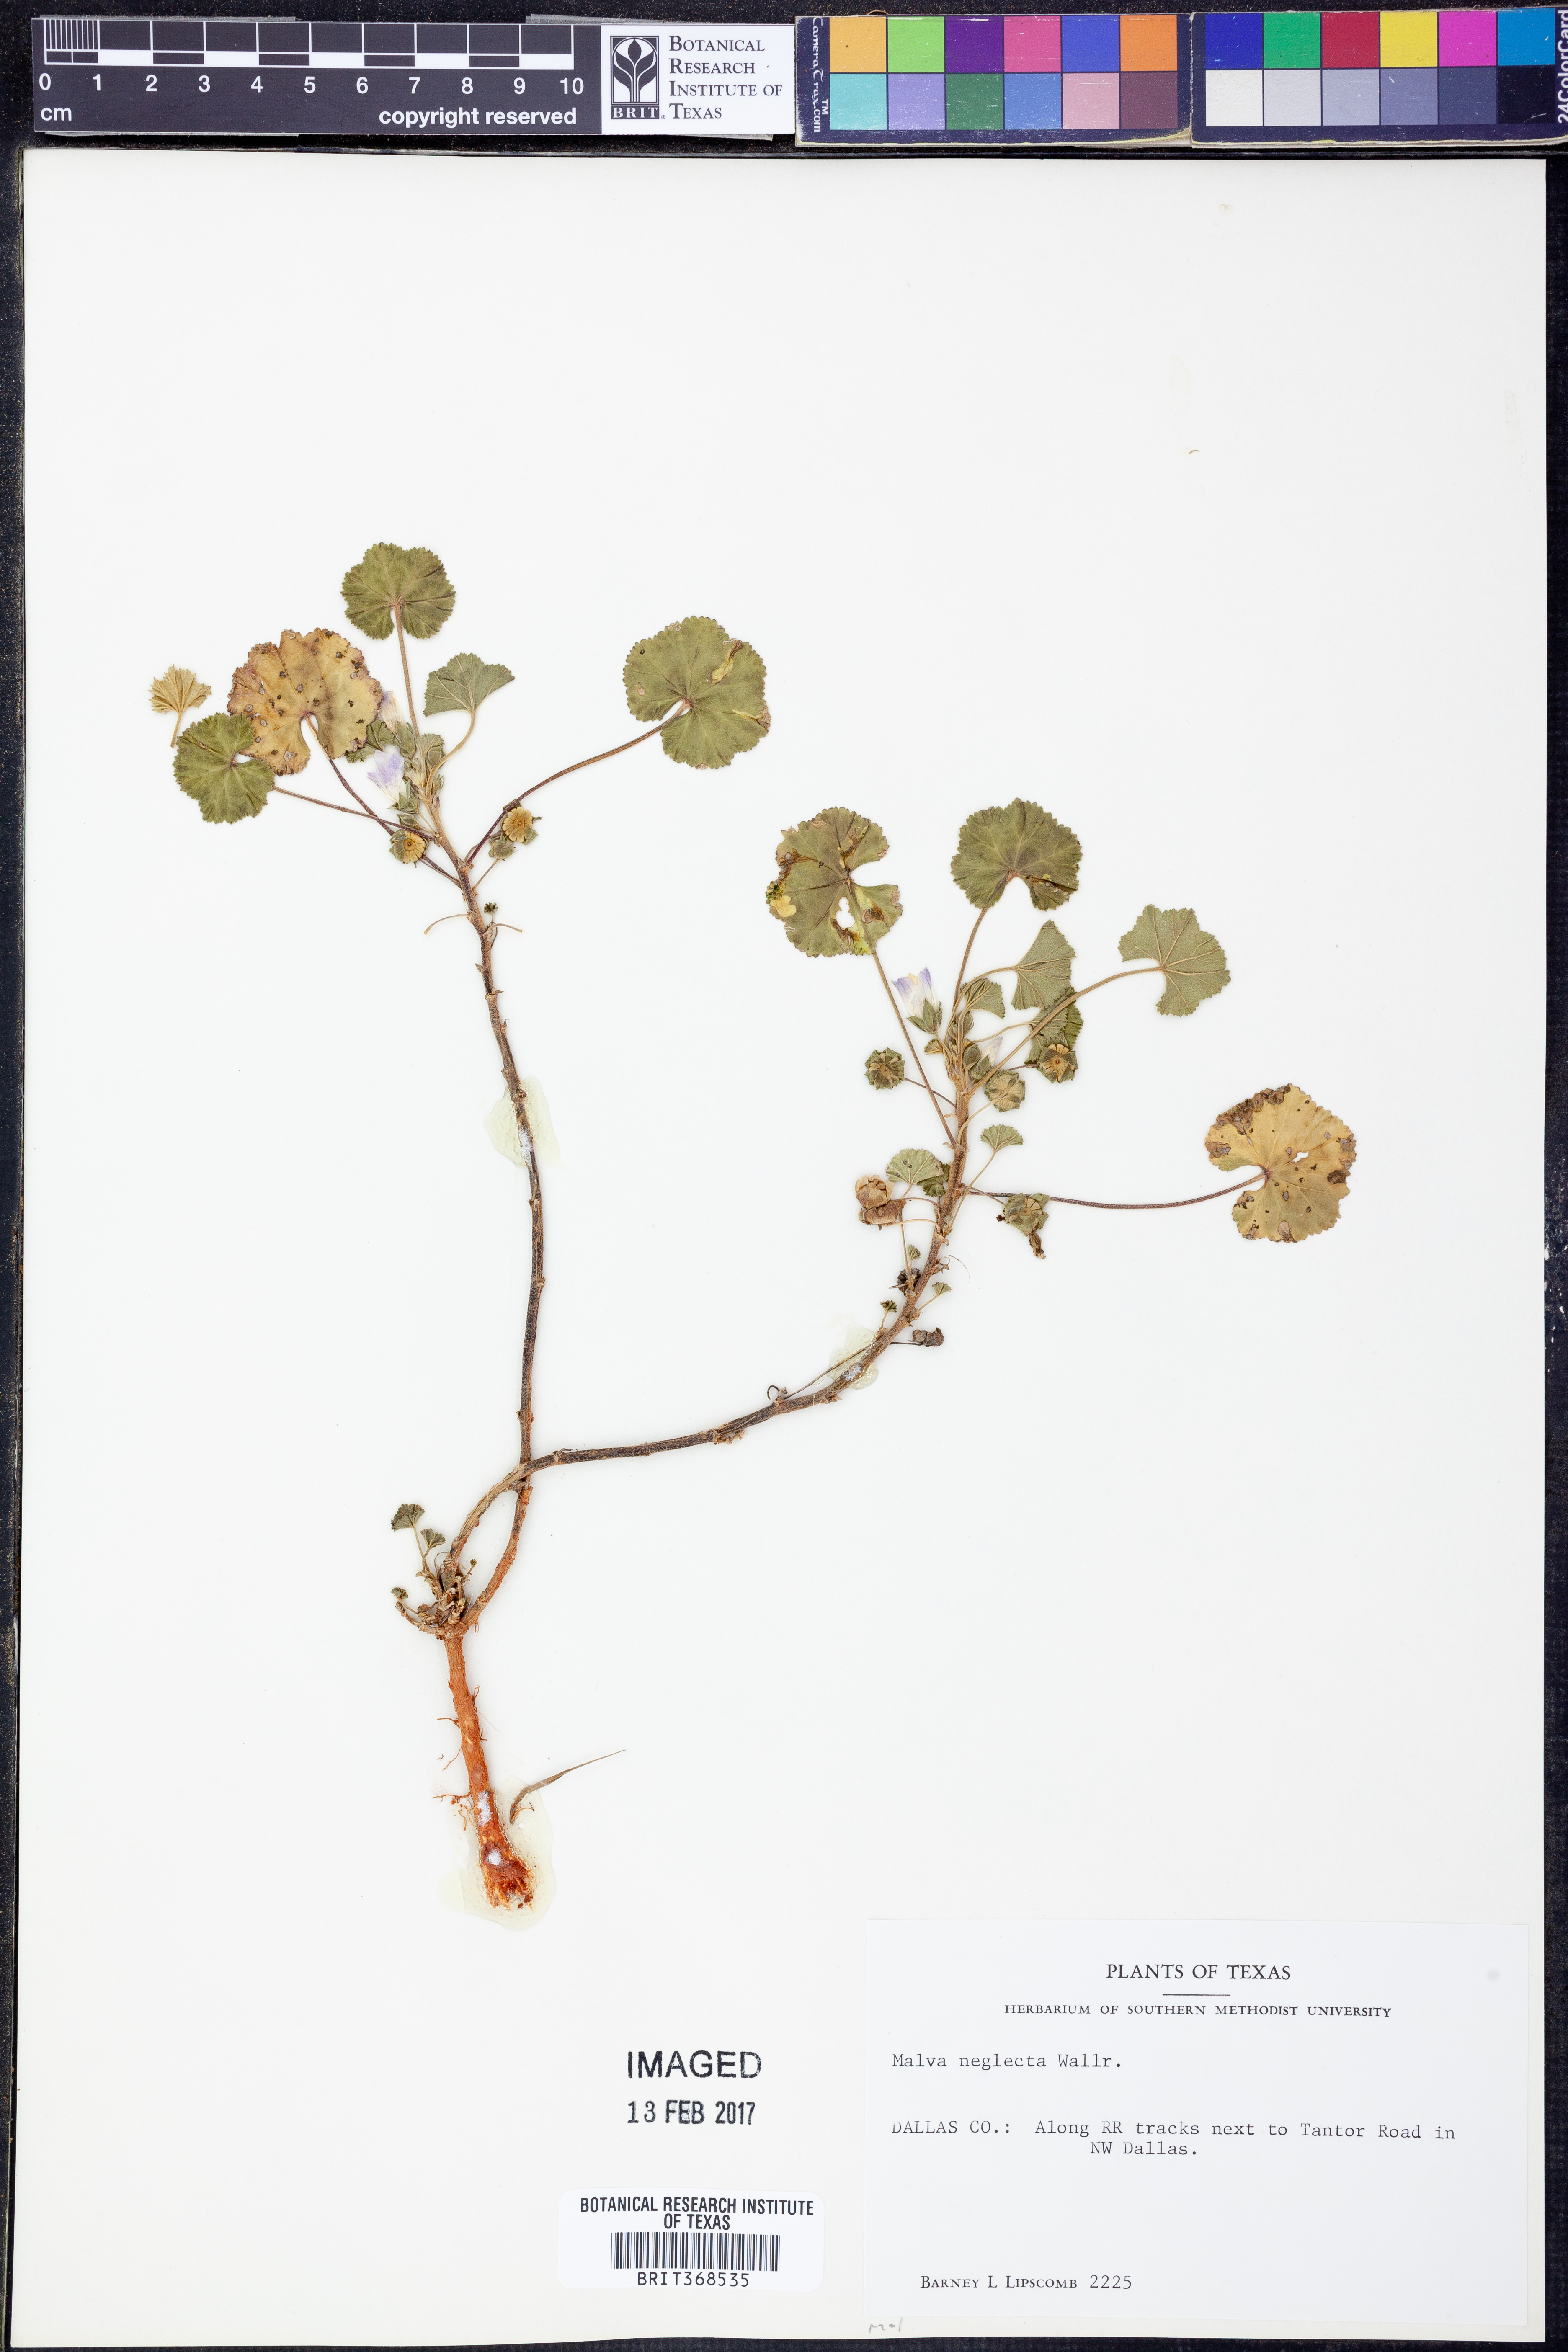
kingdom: Plantae
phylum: Tracheophyta
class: Magnoliopsida
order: Malvales
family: Malvaceae
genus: Malva
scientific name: Malva neglecta
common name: Common mallow
